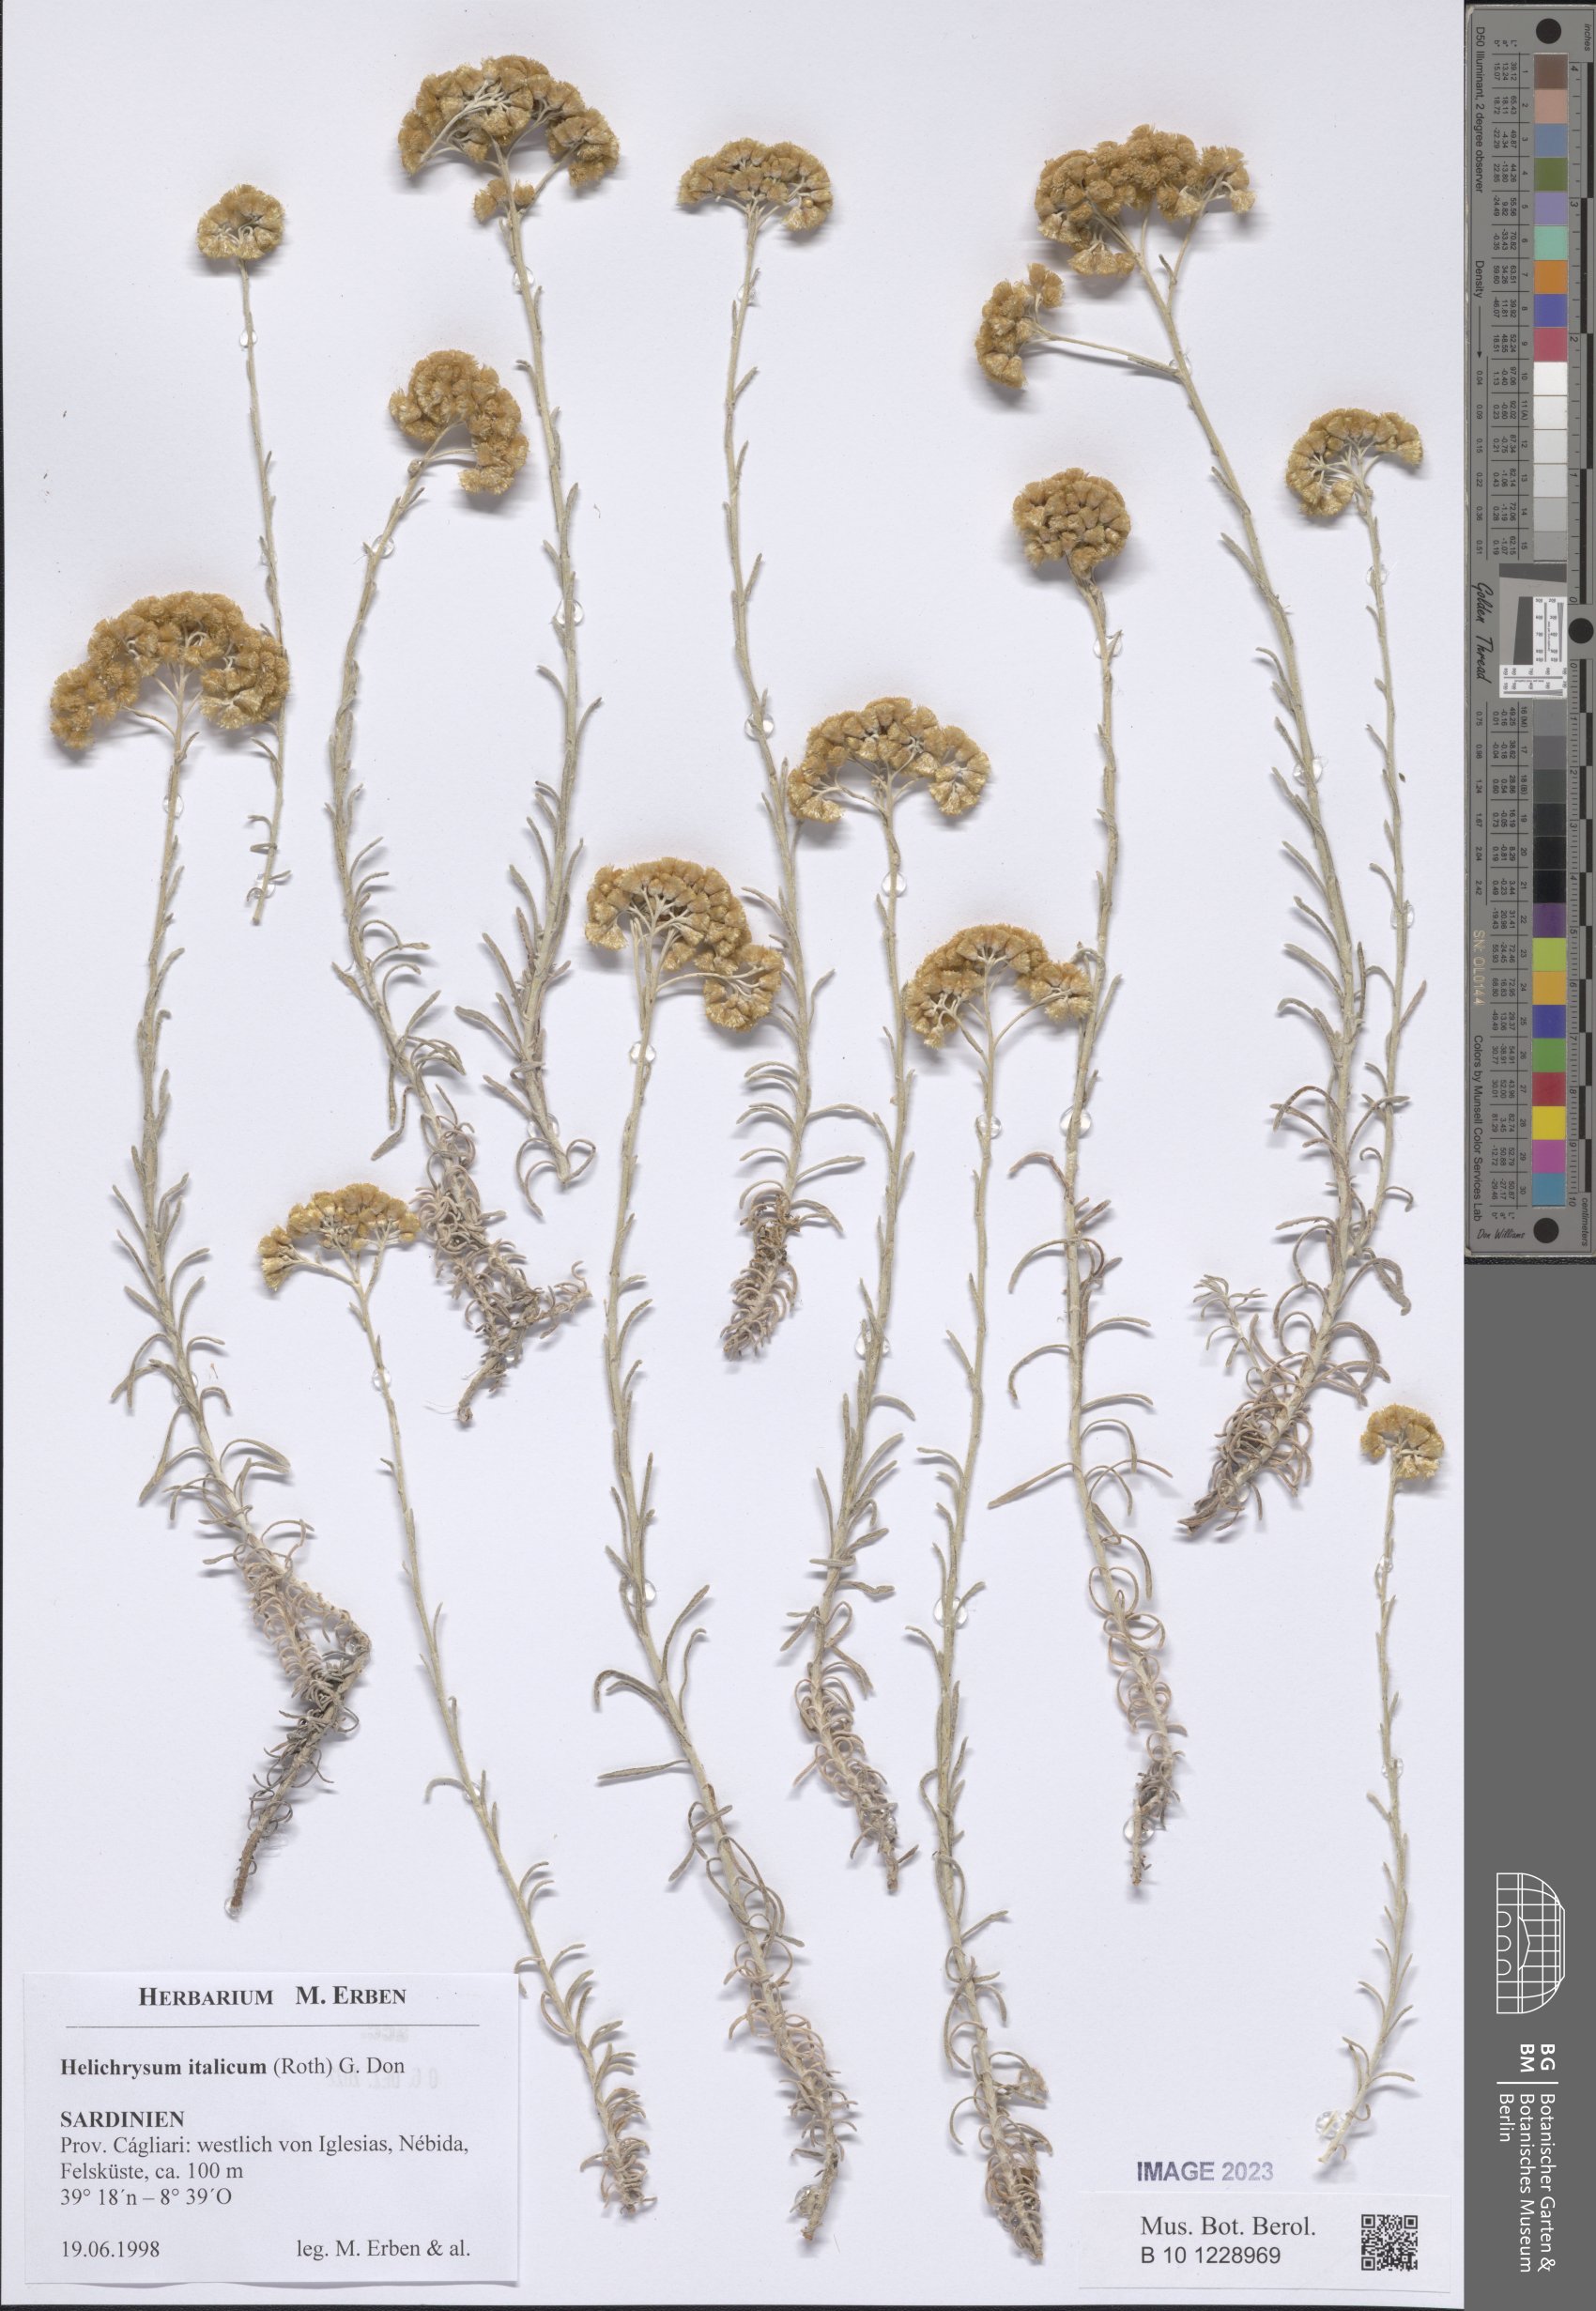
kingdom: Plantae
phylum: Tracheophyta
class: Magnoliopsida
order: Asterales
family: Asteraceae
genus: Helichrysum
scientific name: Helichrysum italicum
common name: Curryplant
